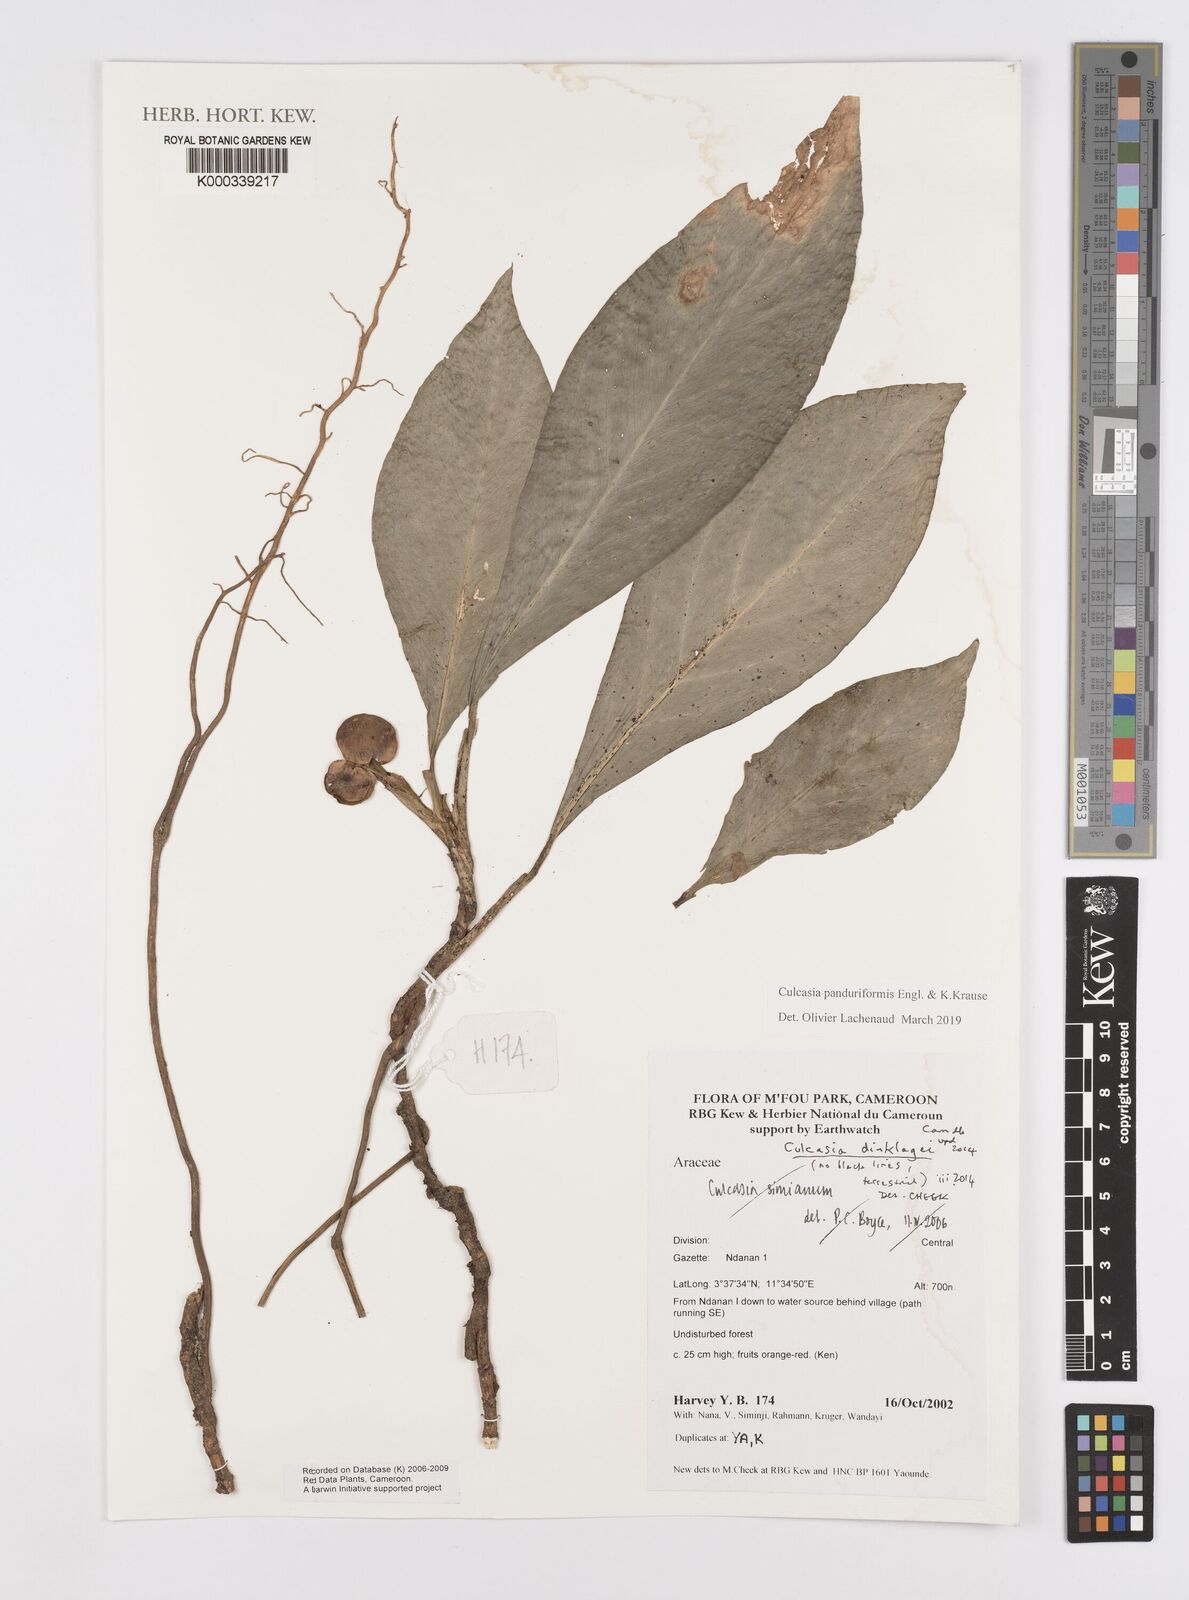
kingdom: Plantae
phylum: Tracheophyta
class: Liliopsida
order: Alismatales
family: Araceae
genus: Culcasia
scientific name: Culcasia panduriformis
